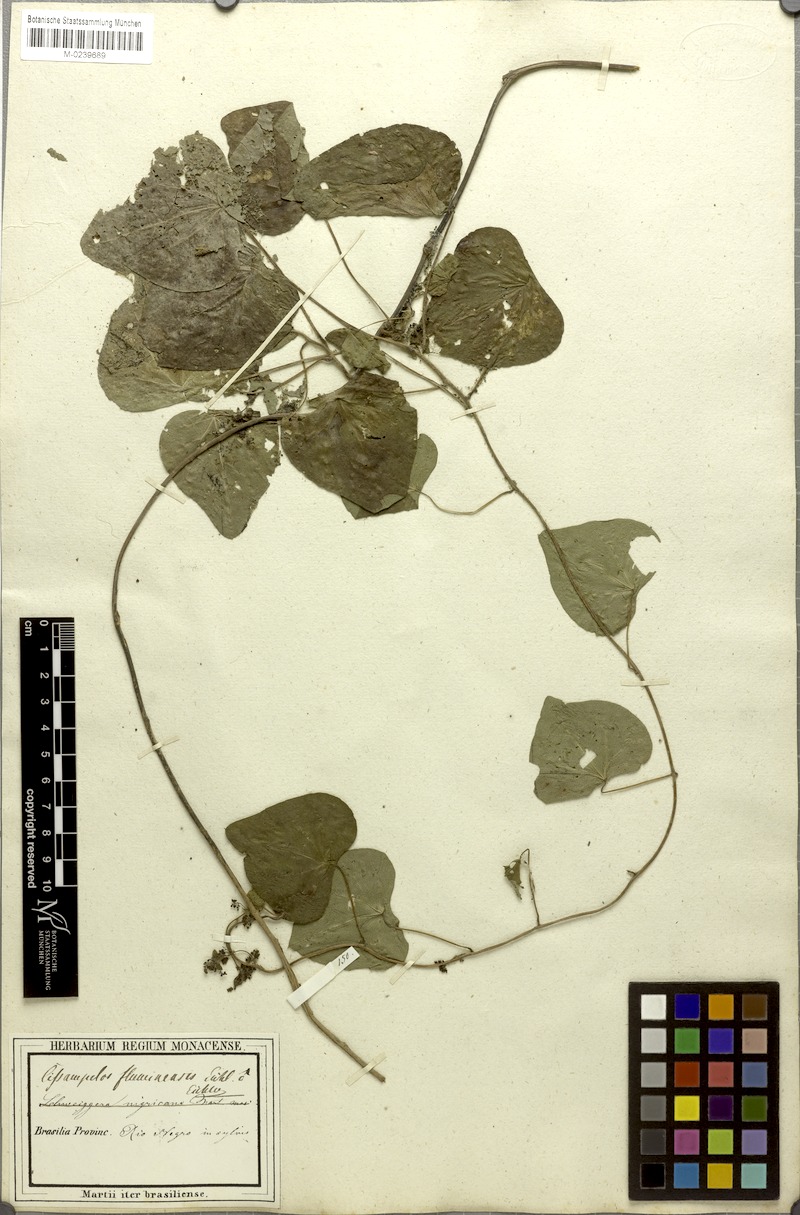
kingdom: Plantae
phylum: Tracheophyta
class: Magnoliopsida
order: Ranunculales
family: Menispermaceae
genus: Cissampelos
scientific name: Cissampelos tropaeolifolia
